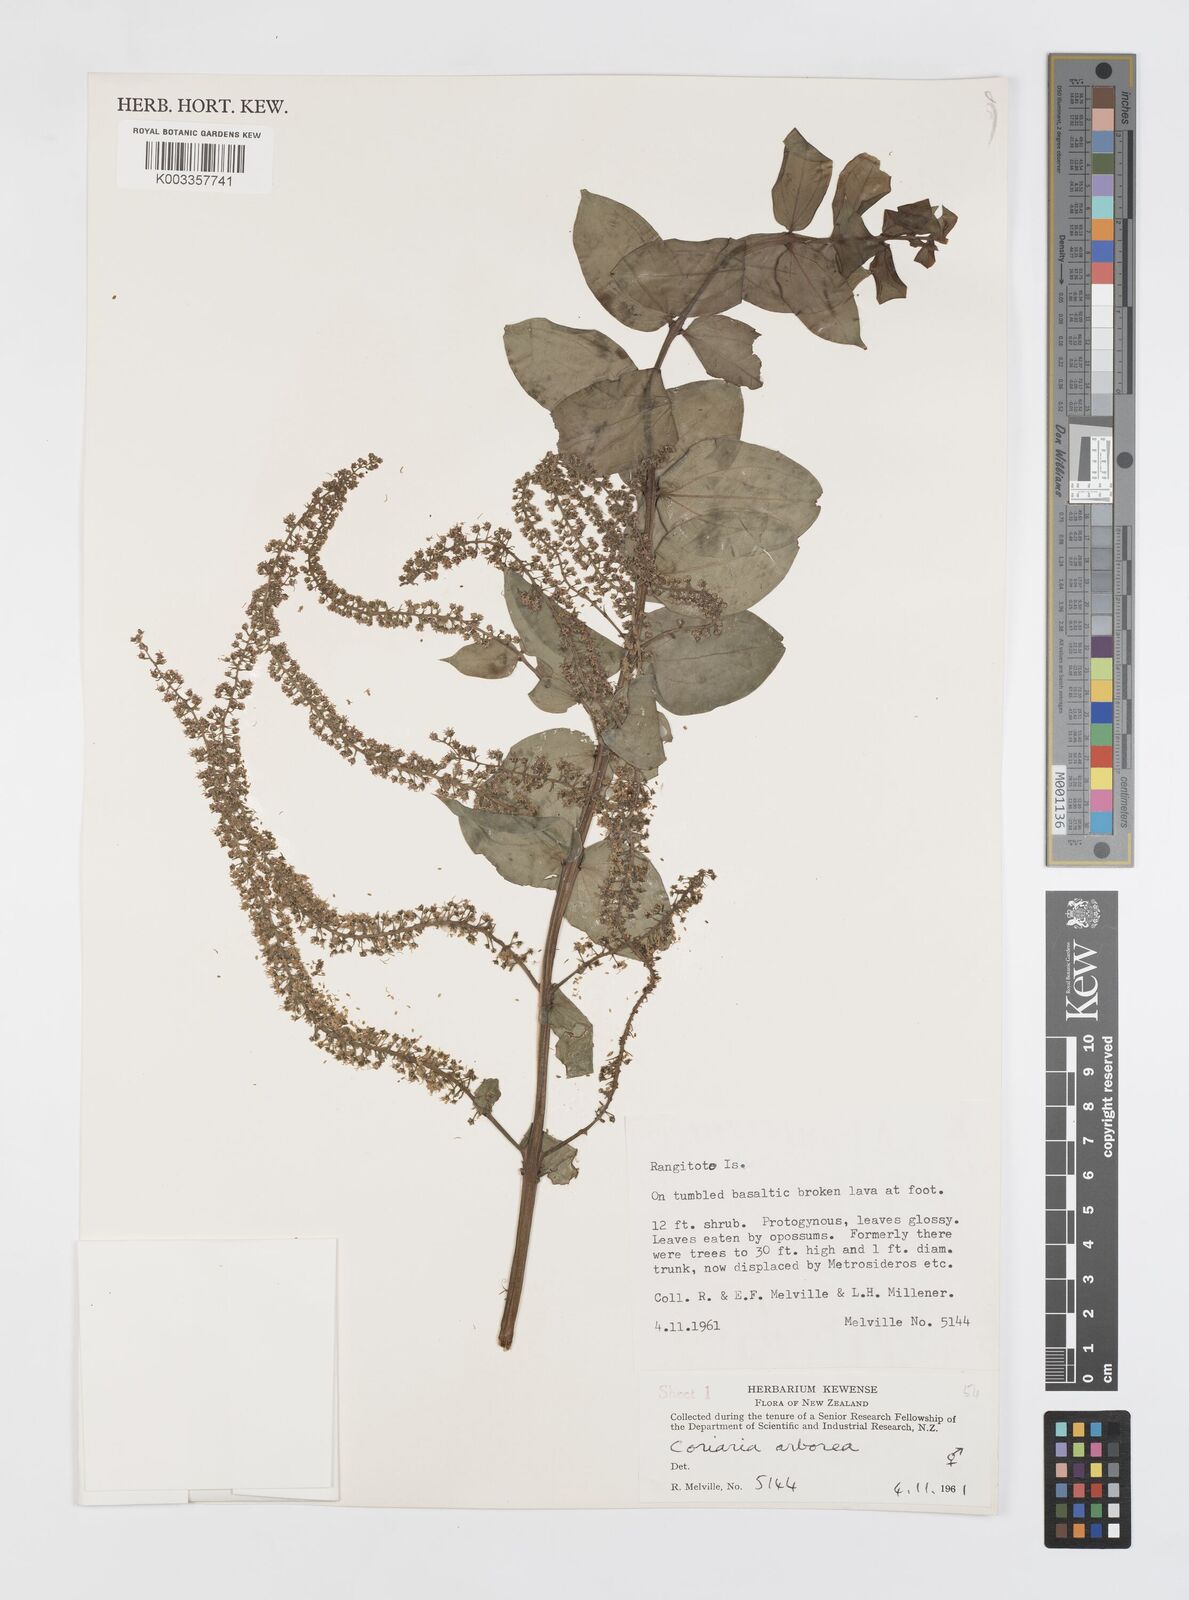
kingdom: Plantae
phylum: Tracheophyta
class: Magnoliopsida
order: Cucurbitales
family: Coriariaceae
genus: Coriaria
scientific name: Coriaria arborea
